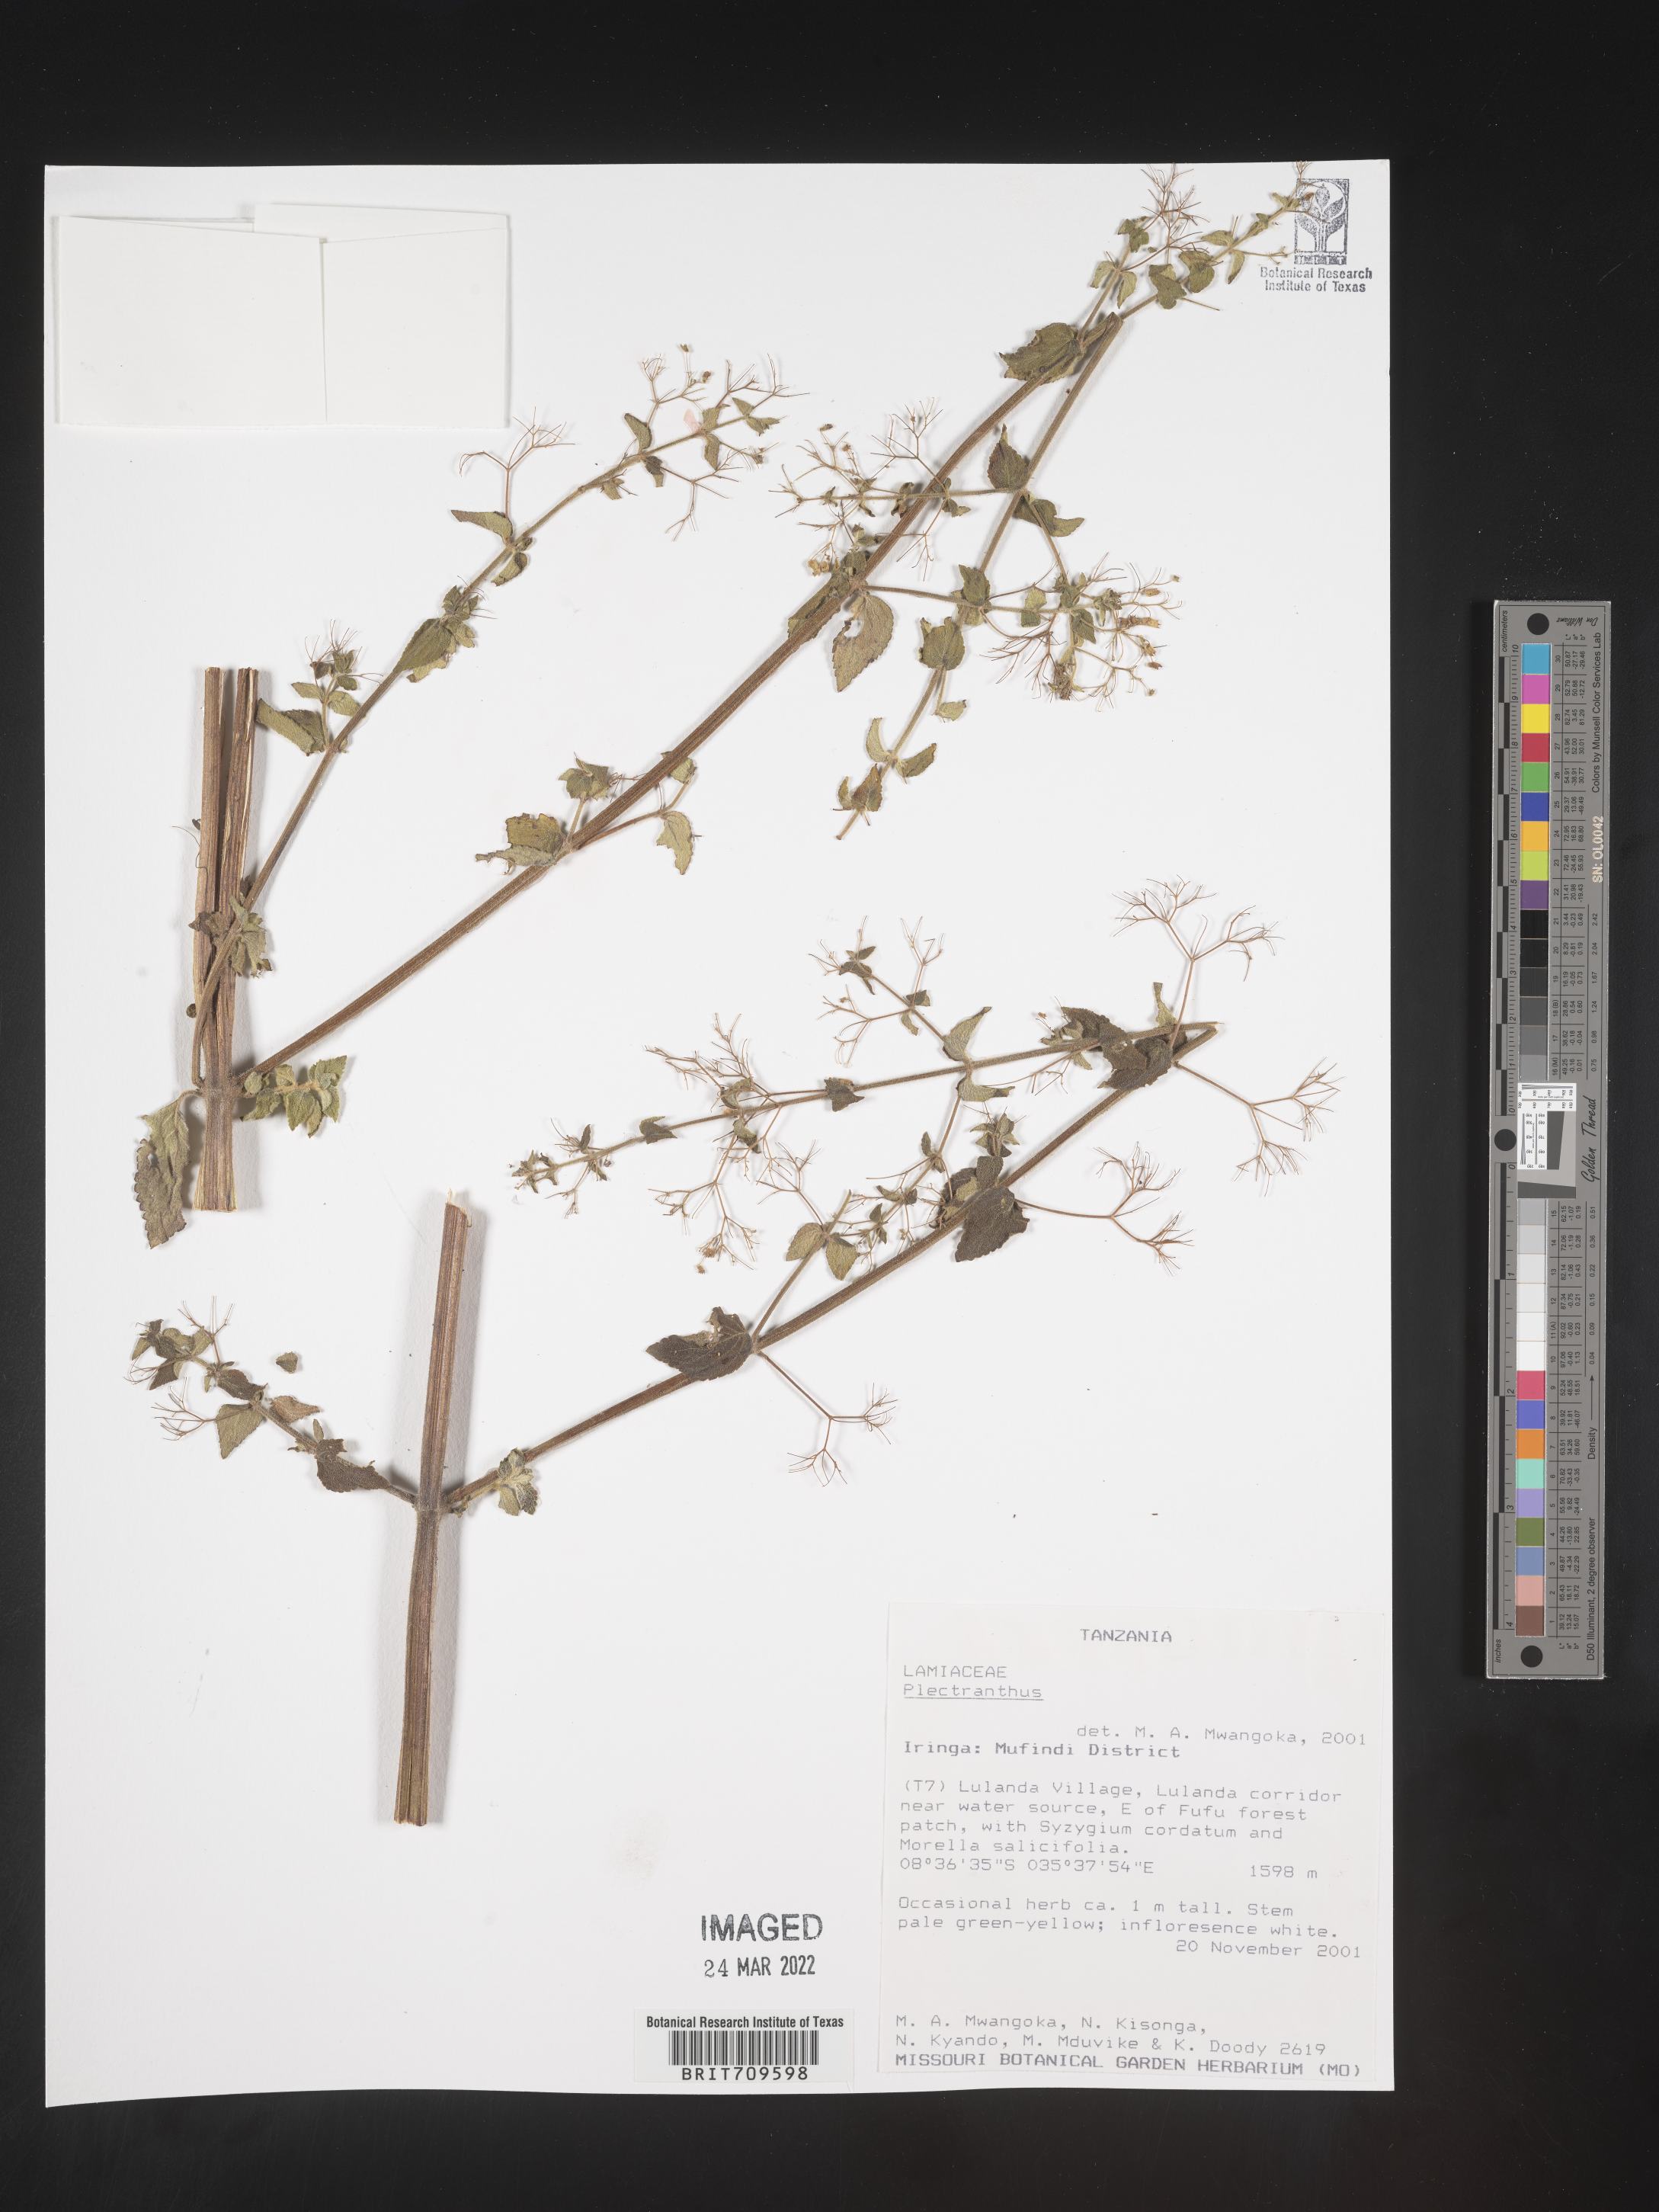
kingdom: Plantae
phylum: Tracheophyta
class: Magnoliopsida
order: Lamiales
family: Lamiaceae
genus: Plectranthus
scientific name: Plectranthus
